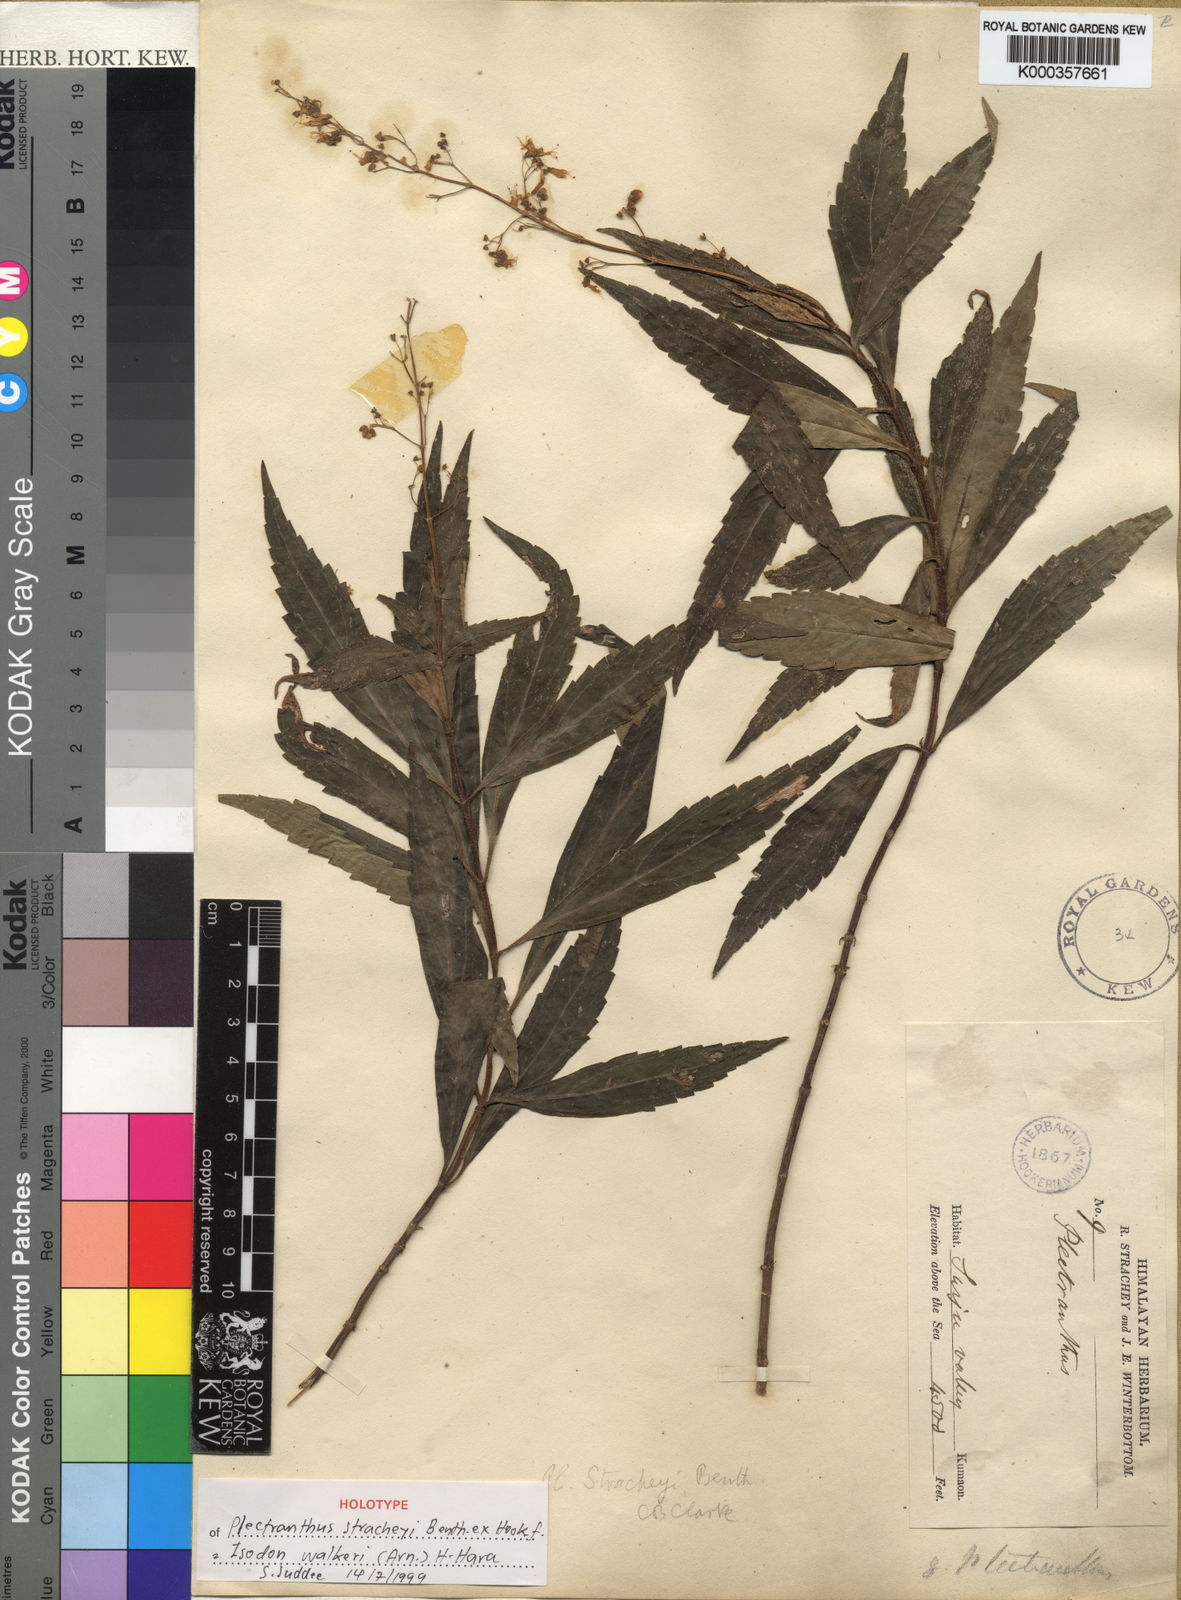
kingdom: Plantae
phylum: Tracheophyta
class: Magnoliopsida
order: Lamiales
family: Lamiaceae
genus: Isodon
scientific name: Isodon walkeri
